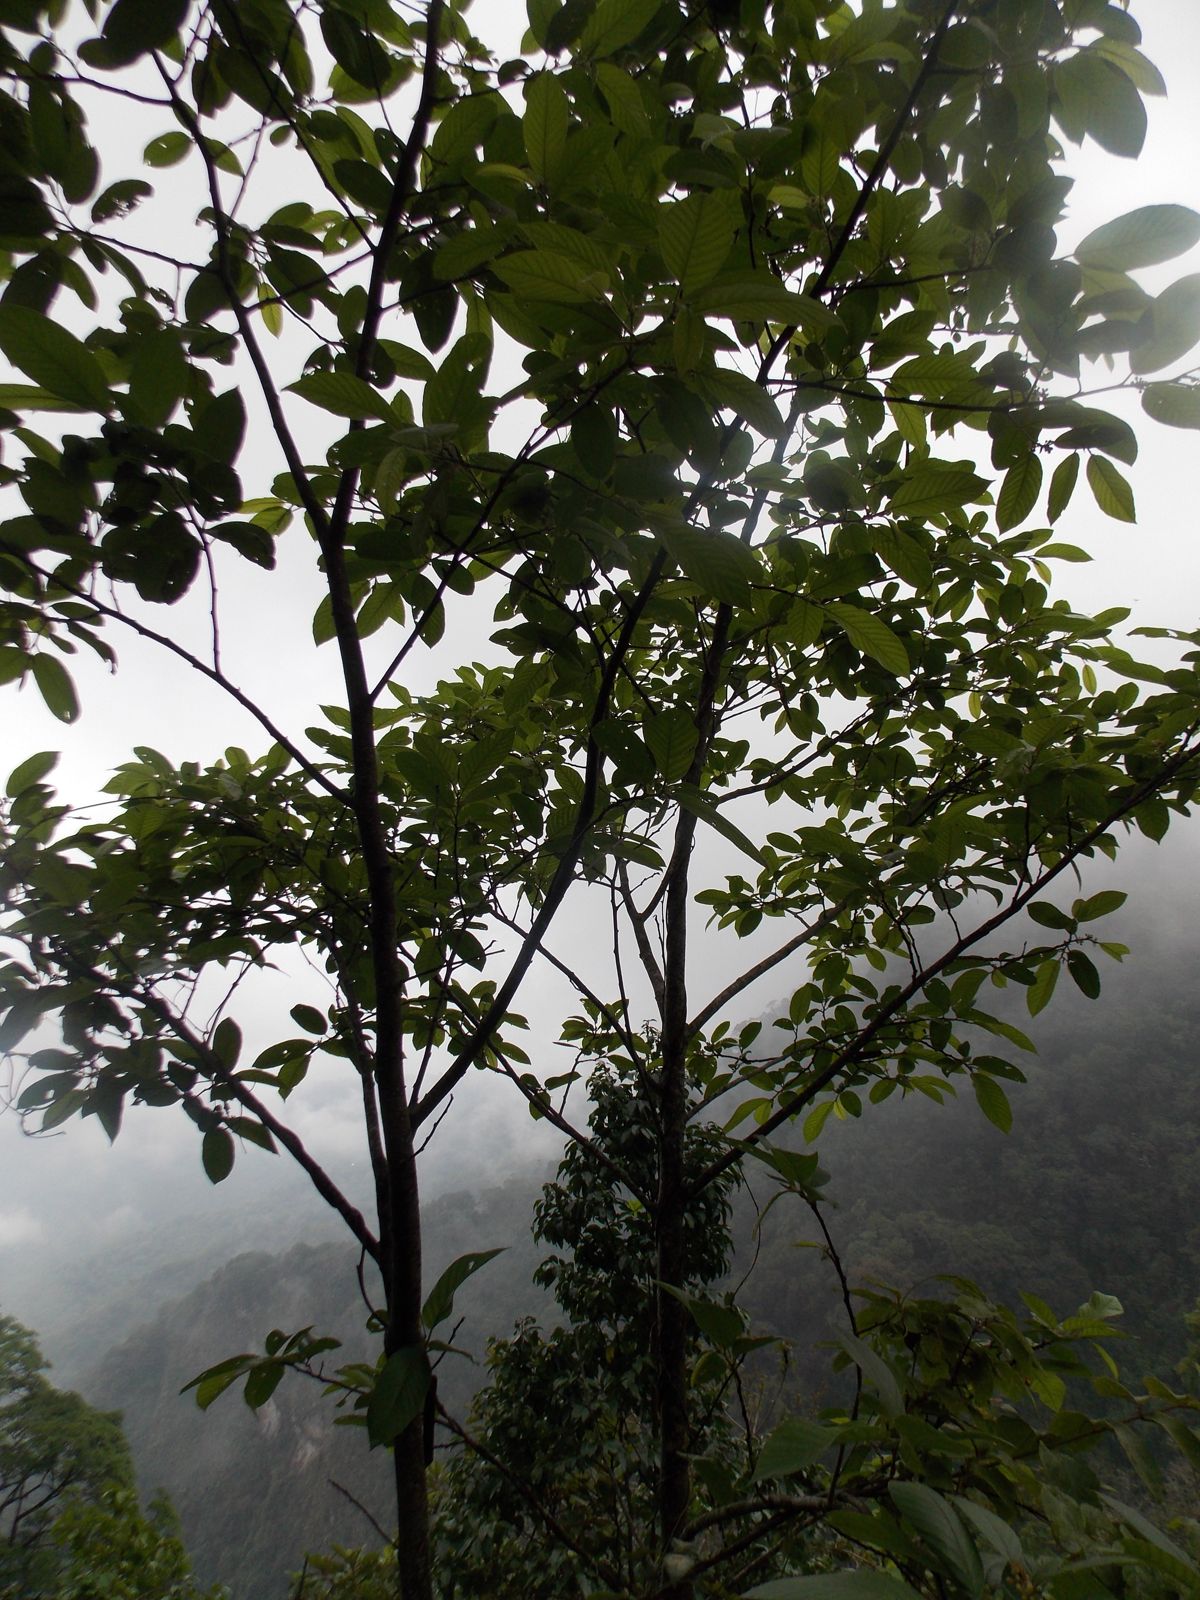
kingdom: Plantae
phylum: Tracheophyta
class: Magnoliopsida
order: Rosales
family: Rhamnaceae
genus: Frangula
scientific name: Frangula discolor
